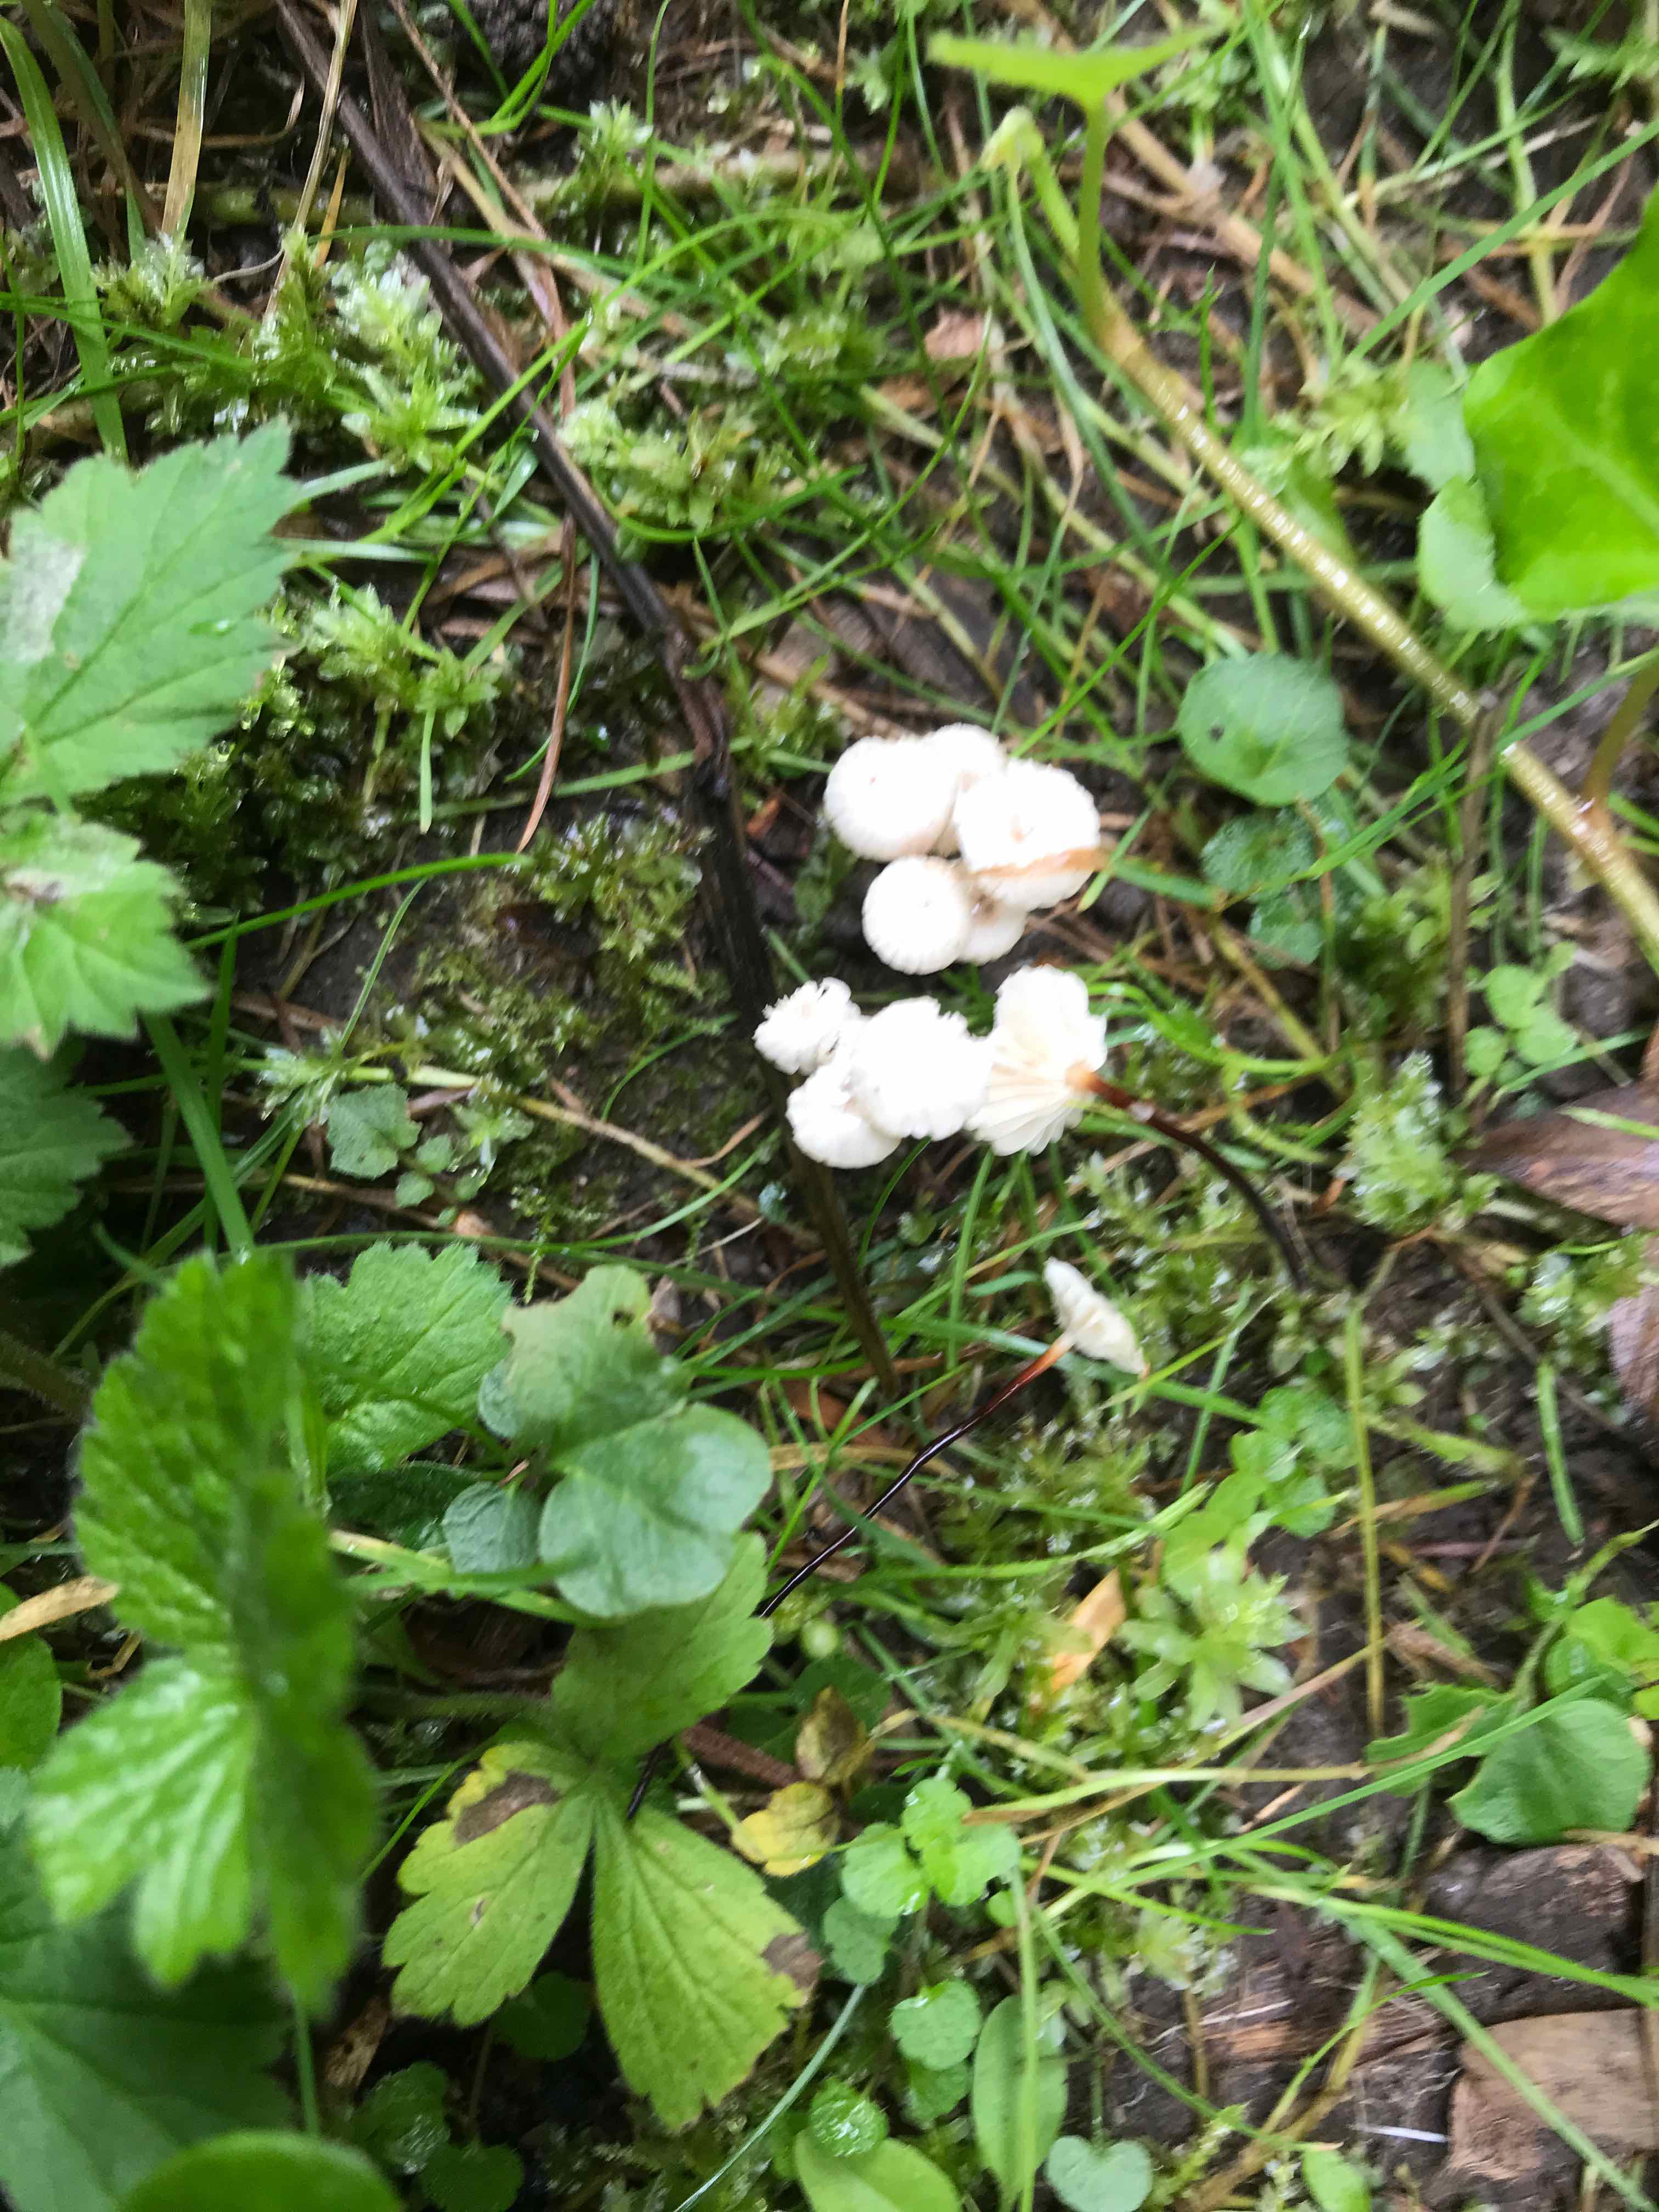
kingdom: Fungi
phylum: Basidiomycota
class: Agaricomycetes
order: Agaricales
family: Marasmiaceae
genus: Marasmius
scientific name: Marasmius rotula
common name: hjul-bruskhat
